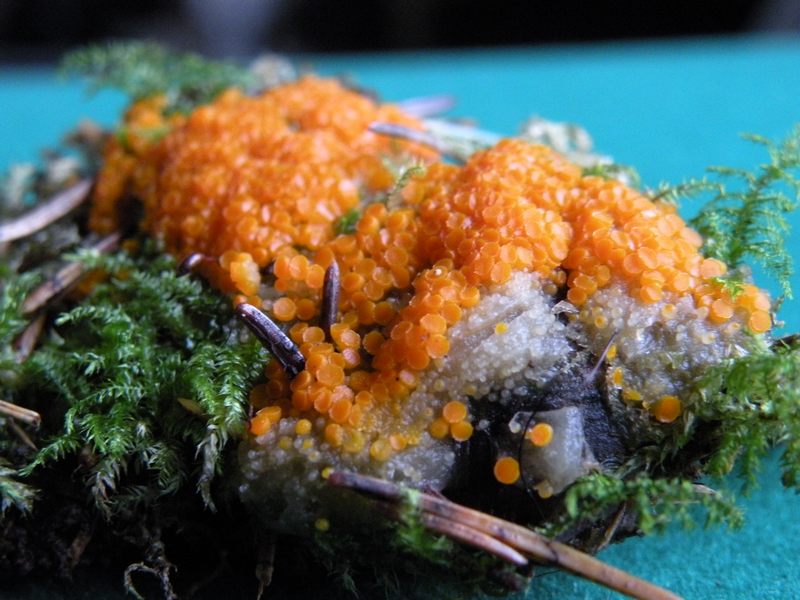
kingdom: Fungi
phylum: Ascomycota
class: Pezizomycetes
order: Pezizales
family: Pyronemataceae
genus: Byssonectria
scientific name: Byssonectria fusispora
